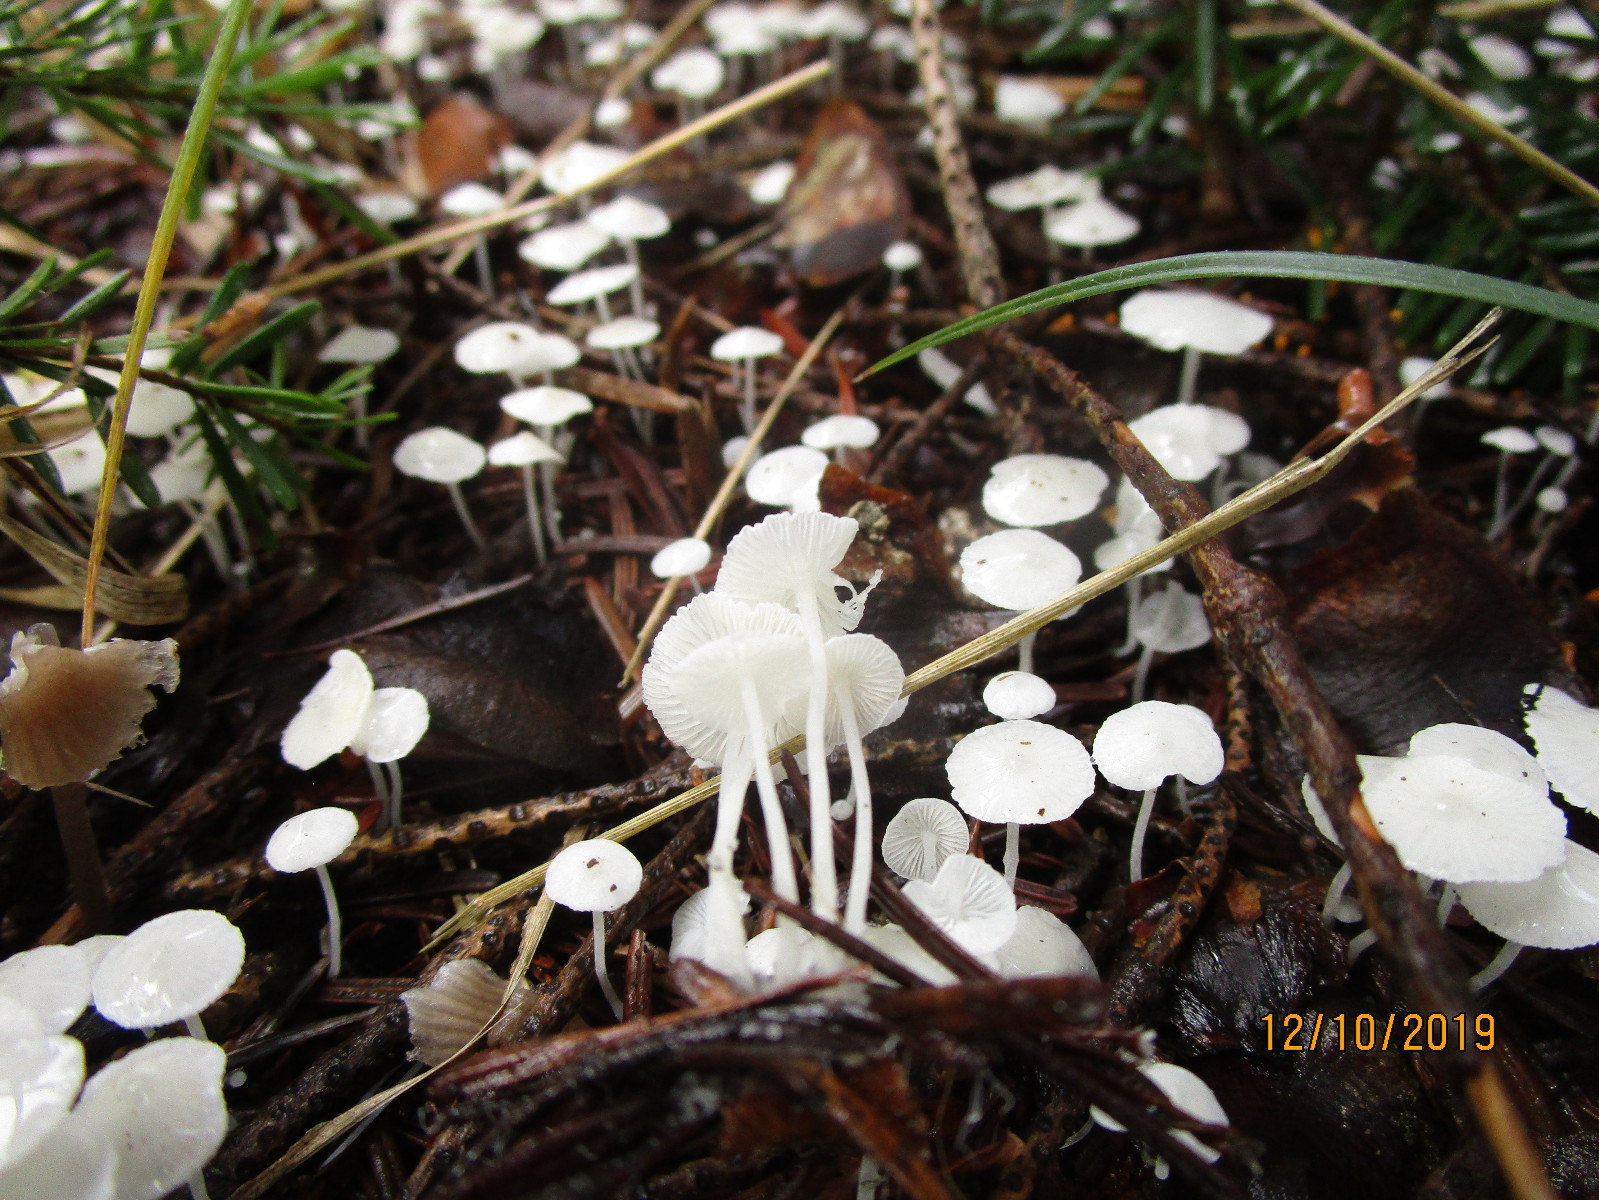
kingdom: Fungi
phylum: Basidiomycota
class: Agaricomycetes
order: Agaricales
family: Mycenaceae
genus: Hemimycena
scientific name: Hemimycena lactea
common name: mælkehvid huesvamp
